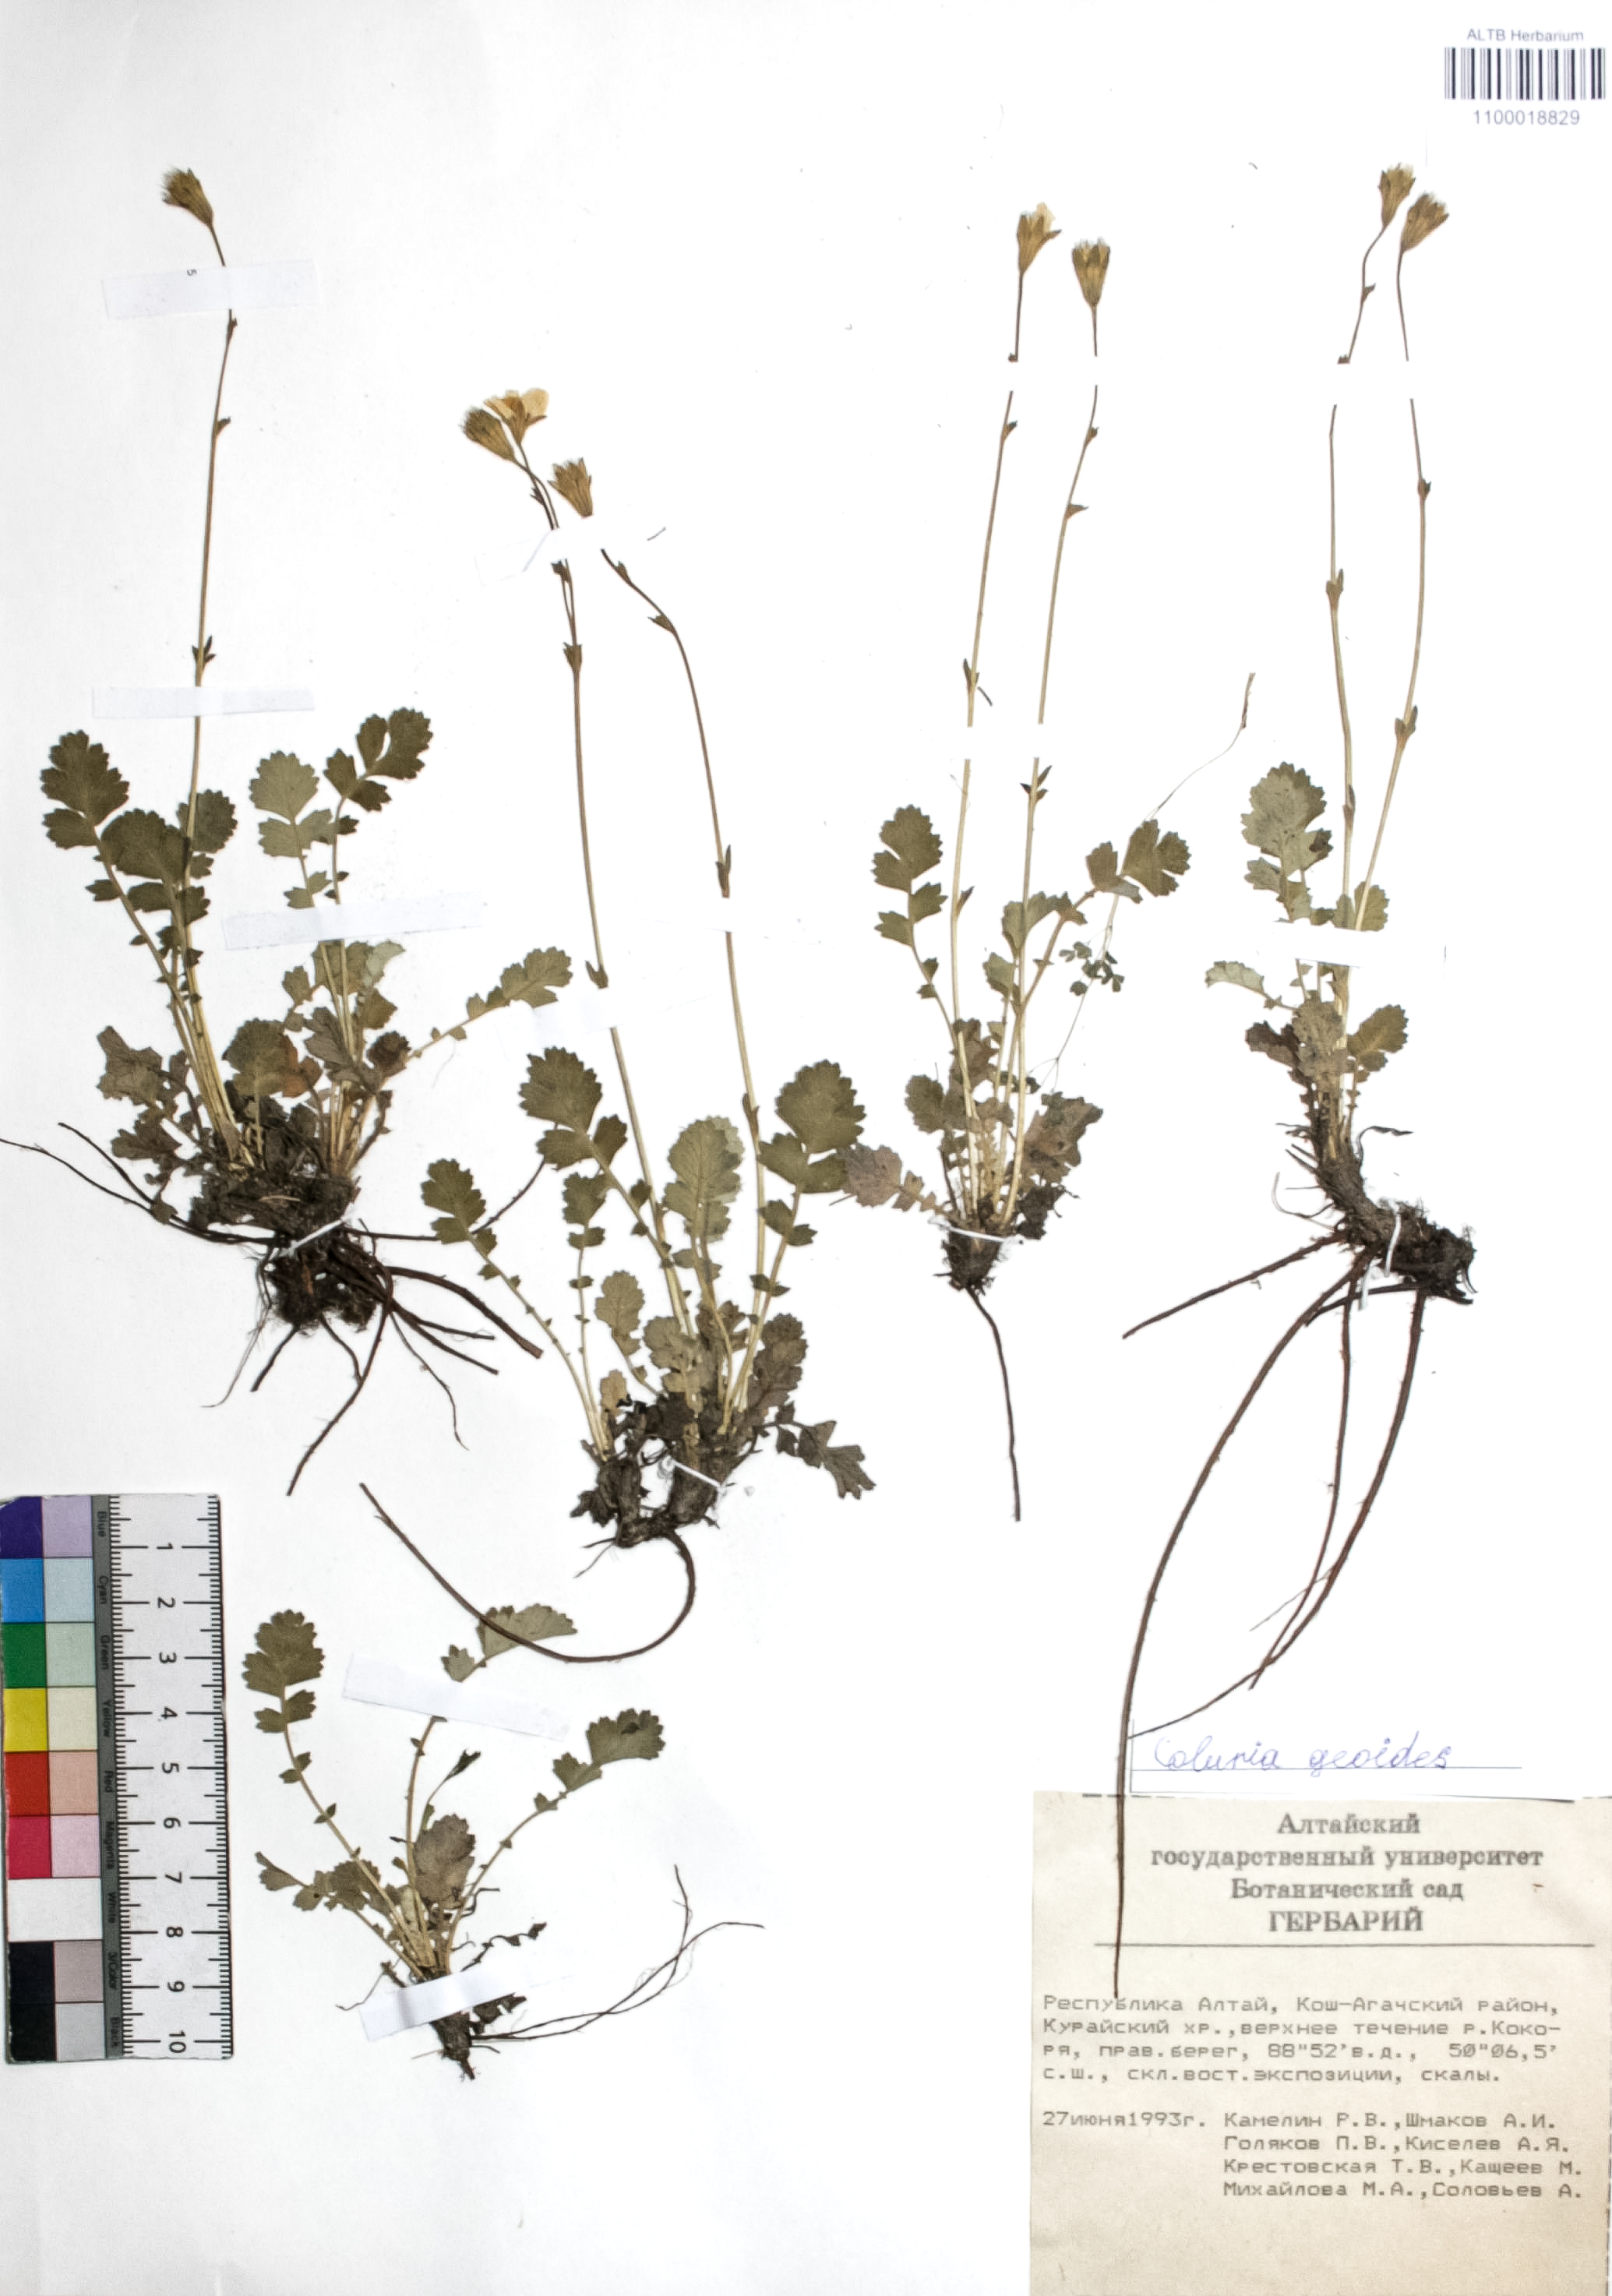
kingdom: Plantae
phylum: Tracheophyta
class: Magnoliopsida
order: Rosales
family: Rosaceae
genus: Geum
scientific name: Geum geoides
